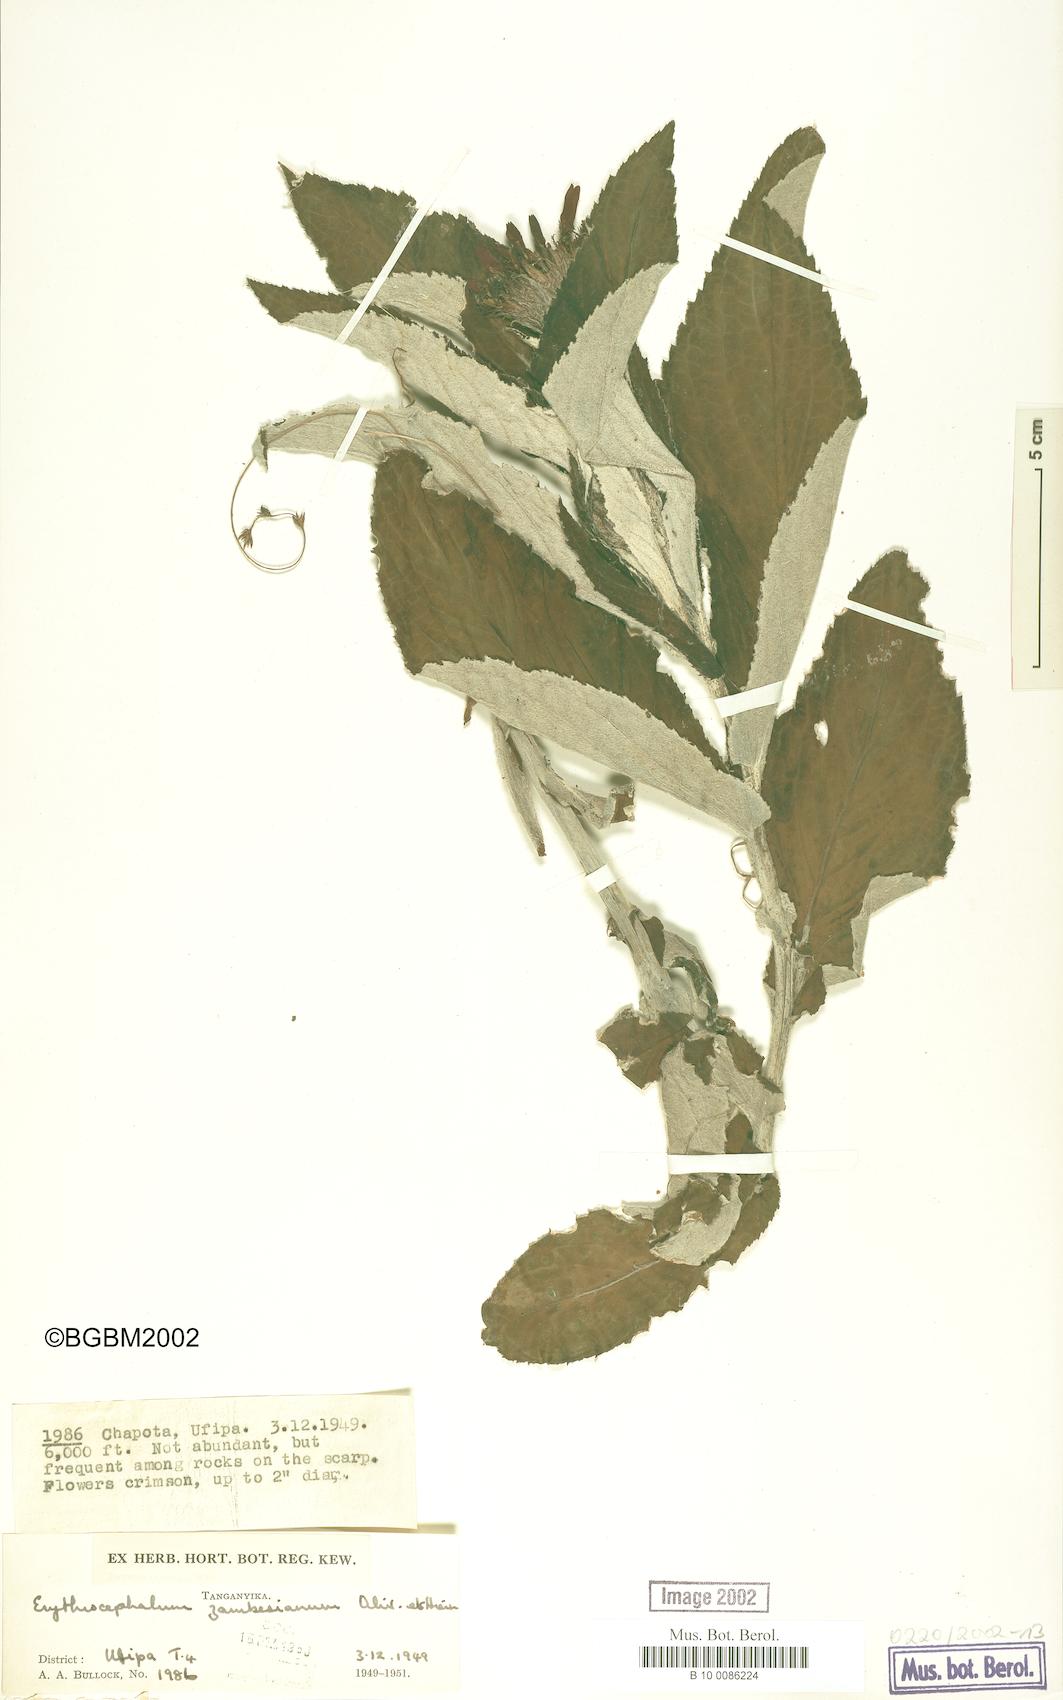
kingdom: Plantae
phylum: Tracheophyta
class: Magnoliopsida
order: Asterales
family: Asteraceae
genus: Erythrocephalum
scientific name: Erythrocephalum longifolium
